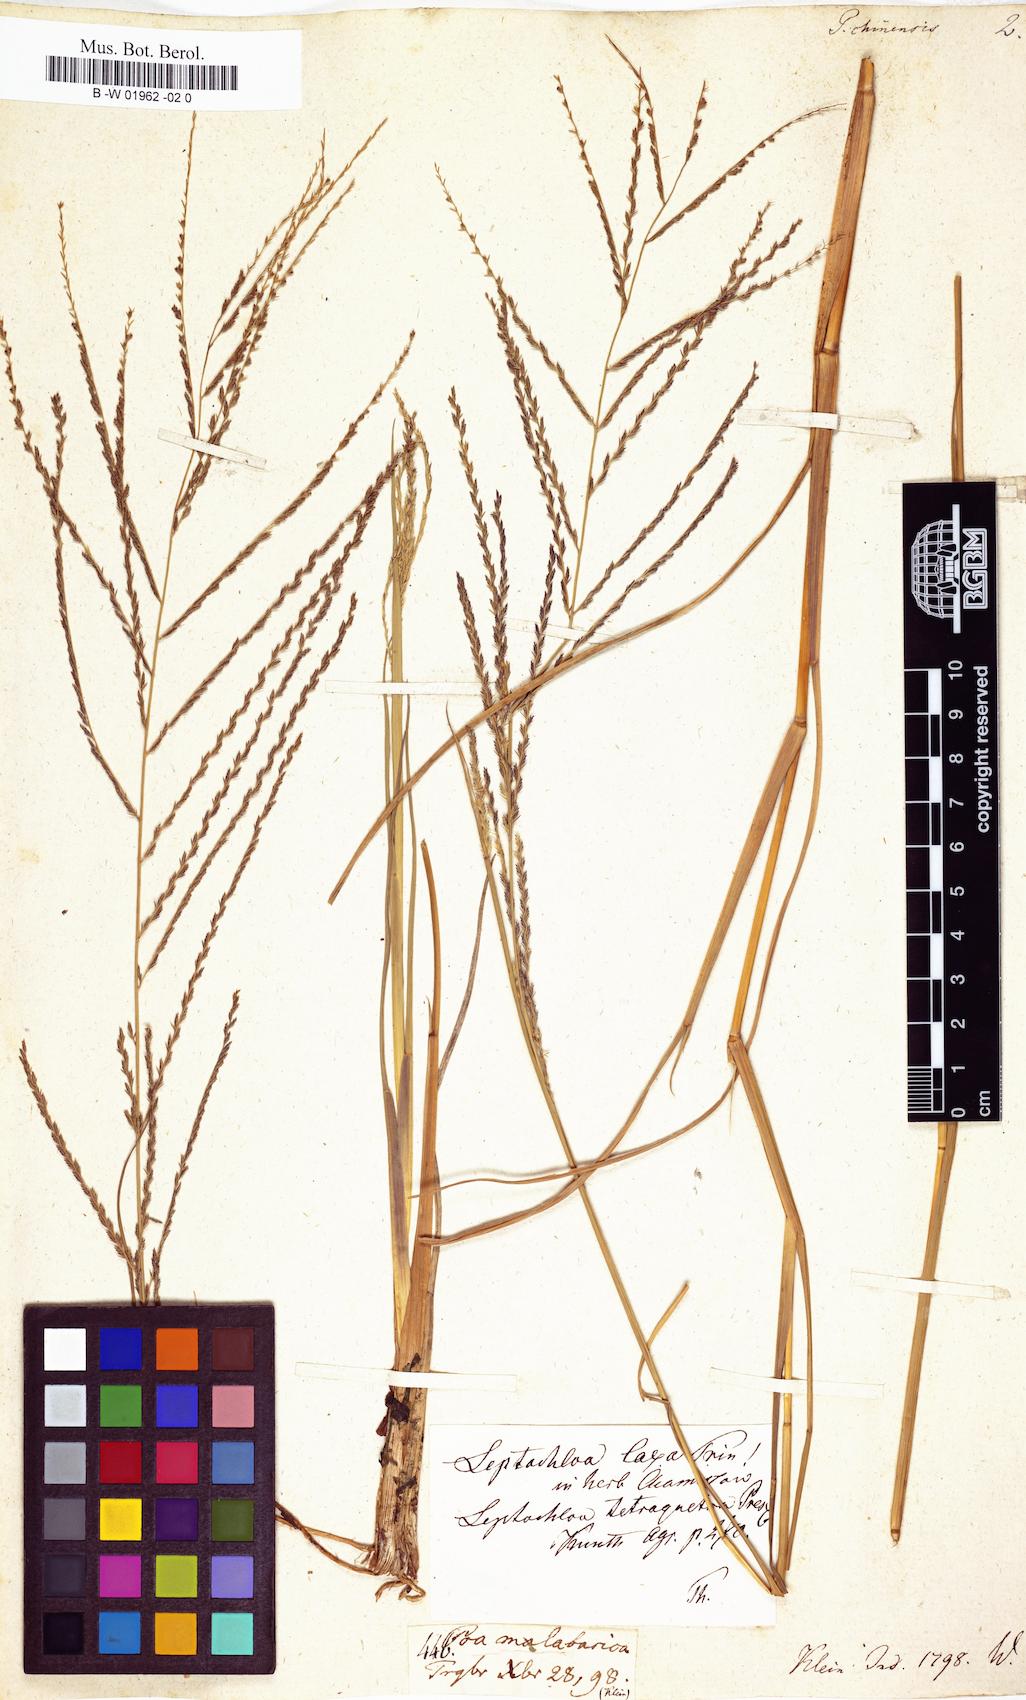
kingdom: Plantae
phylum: Tracheophyta
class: Liliopsida
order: Poales
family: Poaceae
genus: Leptochloa
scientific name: Leptochloa chinensis
